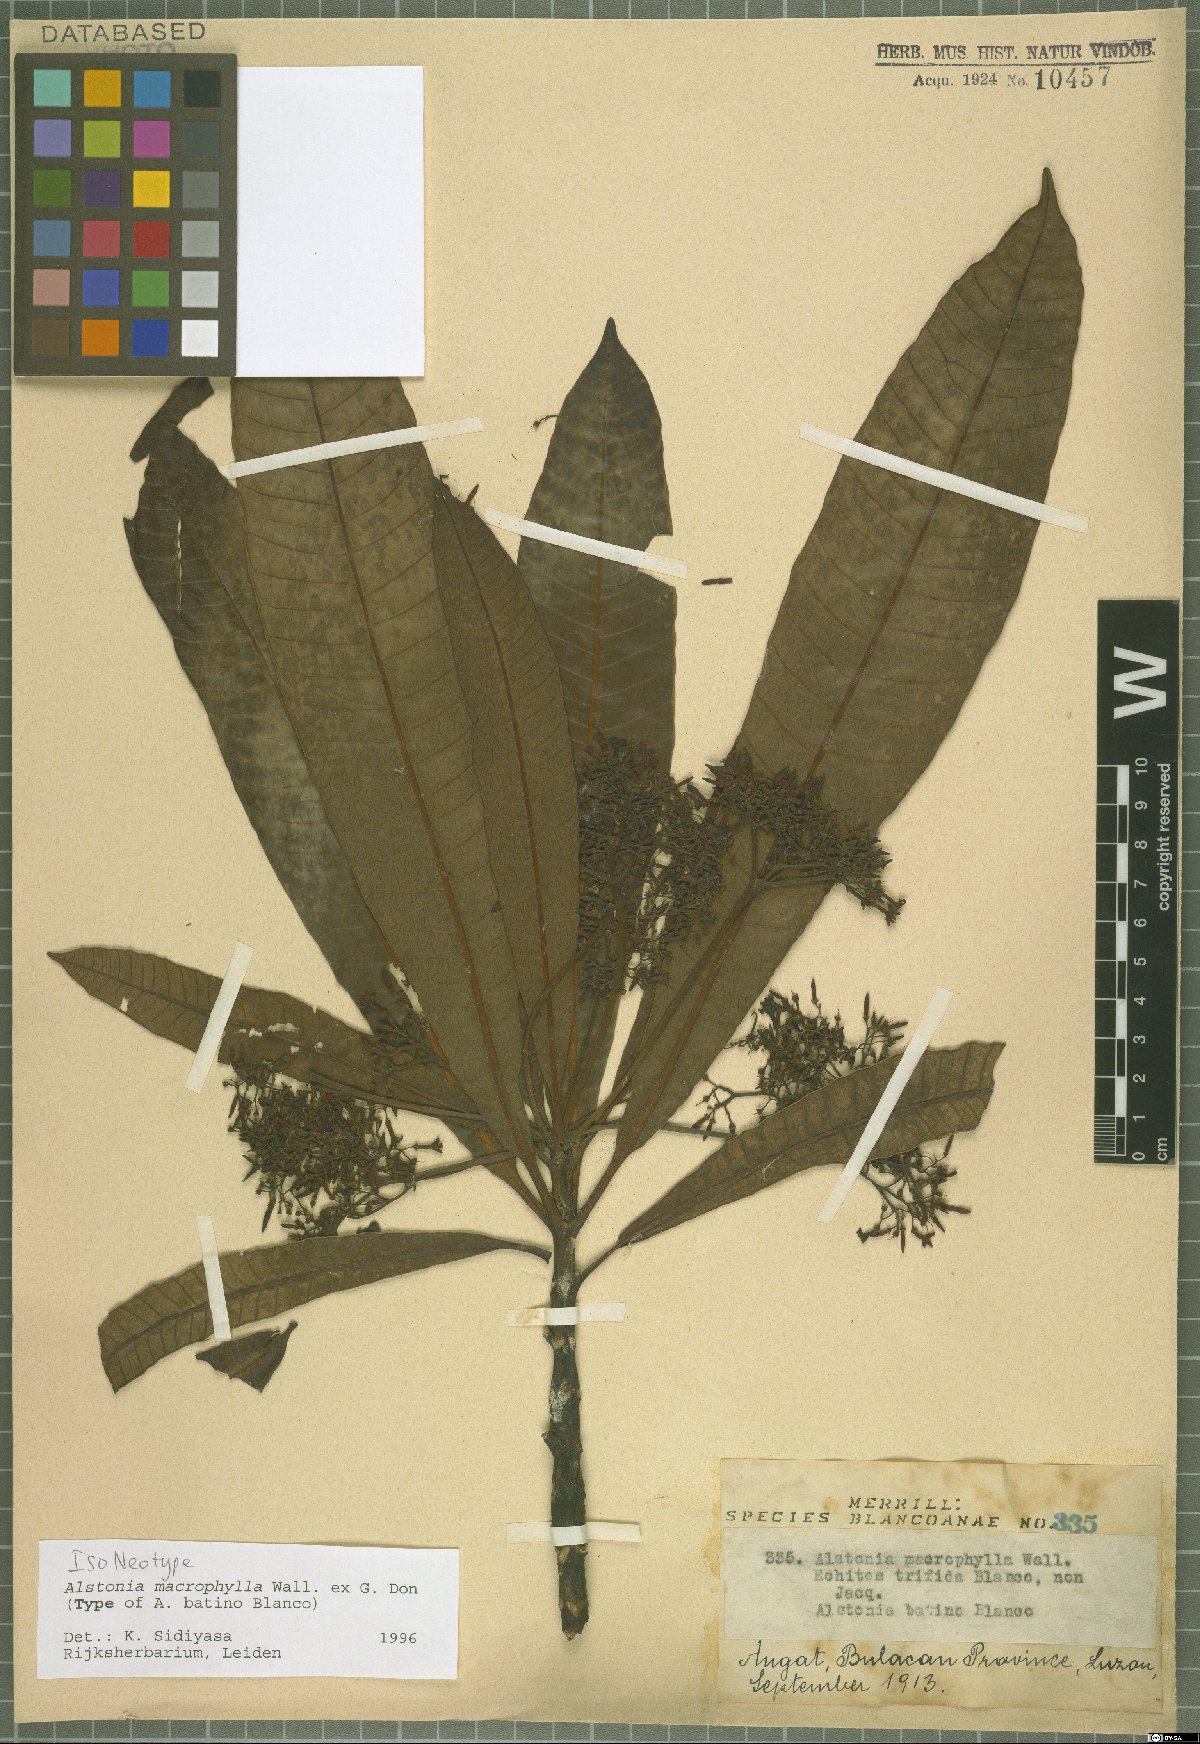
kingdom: Plantae
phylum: Tracheophyta
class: Magnoliopsida
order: Gentianales
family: Apocynaceae
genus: Alstonia
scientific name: Alstonia macrophylla
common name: Deviltree
